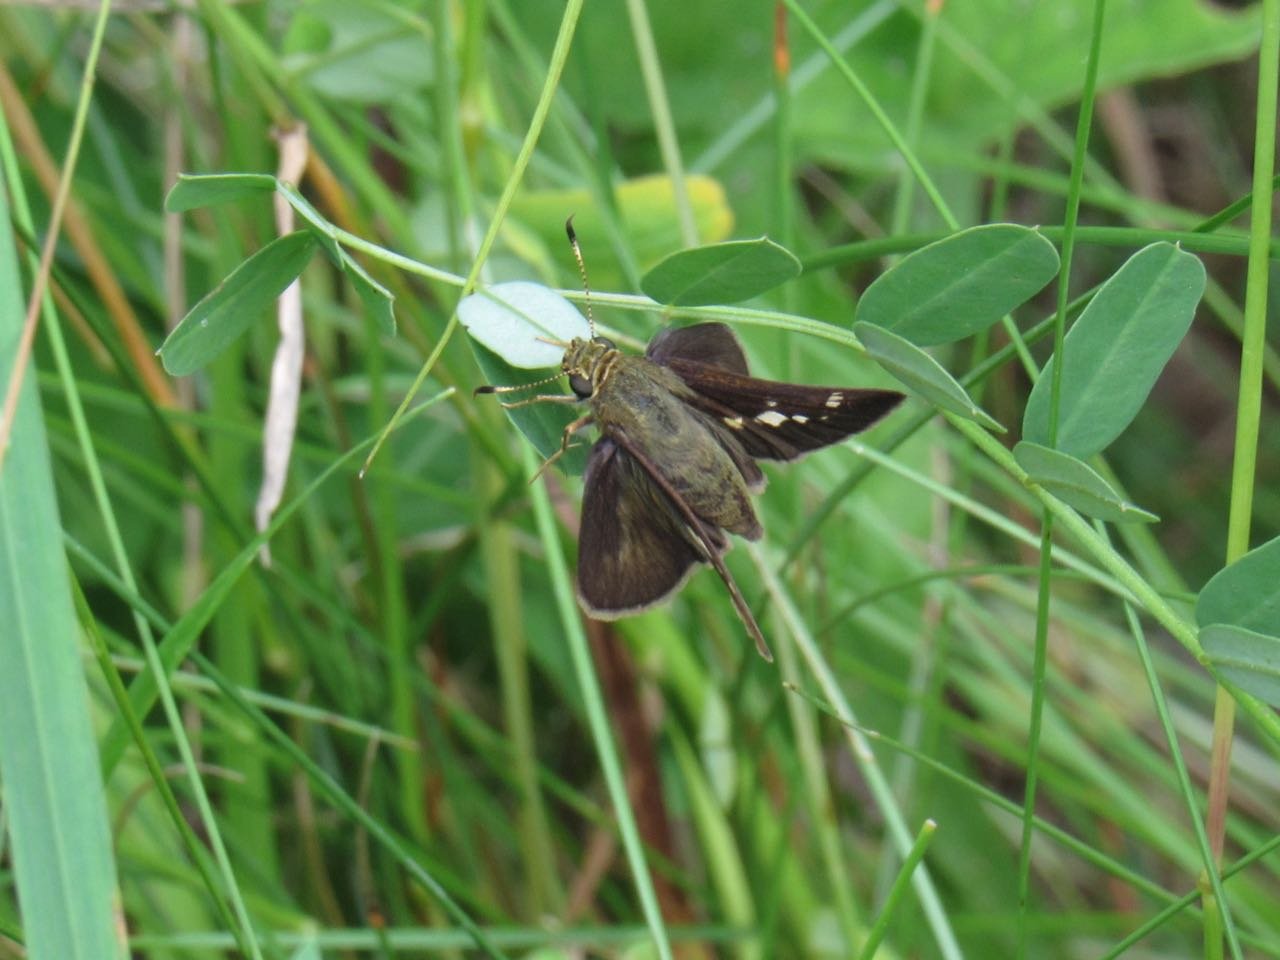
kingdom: Animalia
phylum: Arthropoda
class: Insecta
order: Lepidoptera
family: Hesperiidae
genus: Vernia
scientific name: Vernia verna
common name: Little Glassywing
